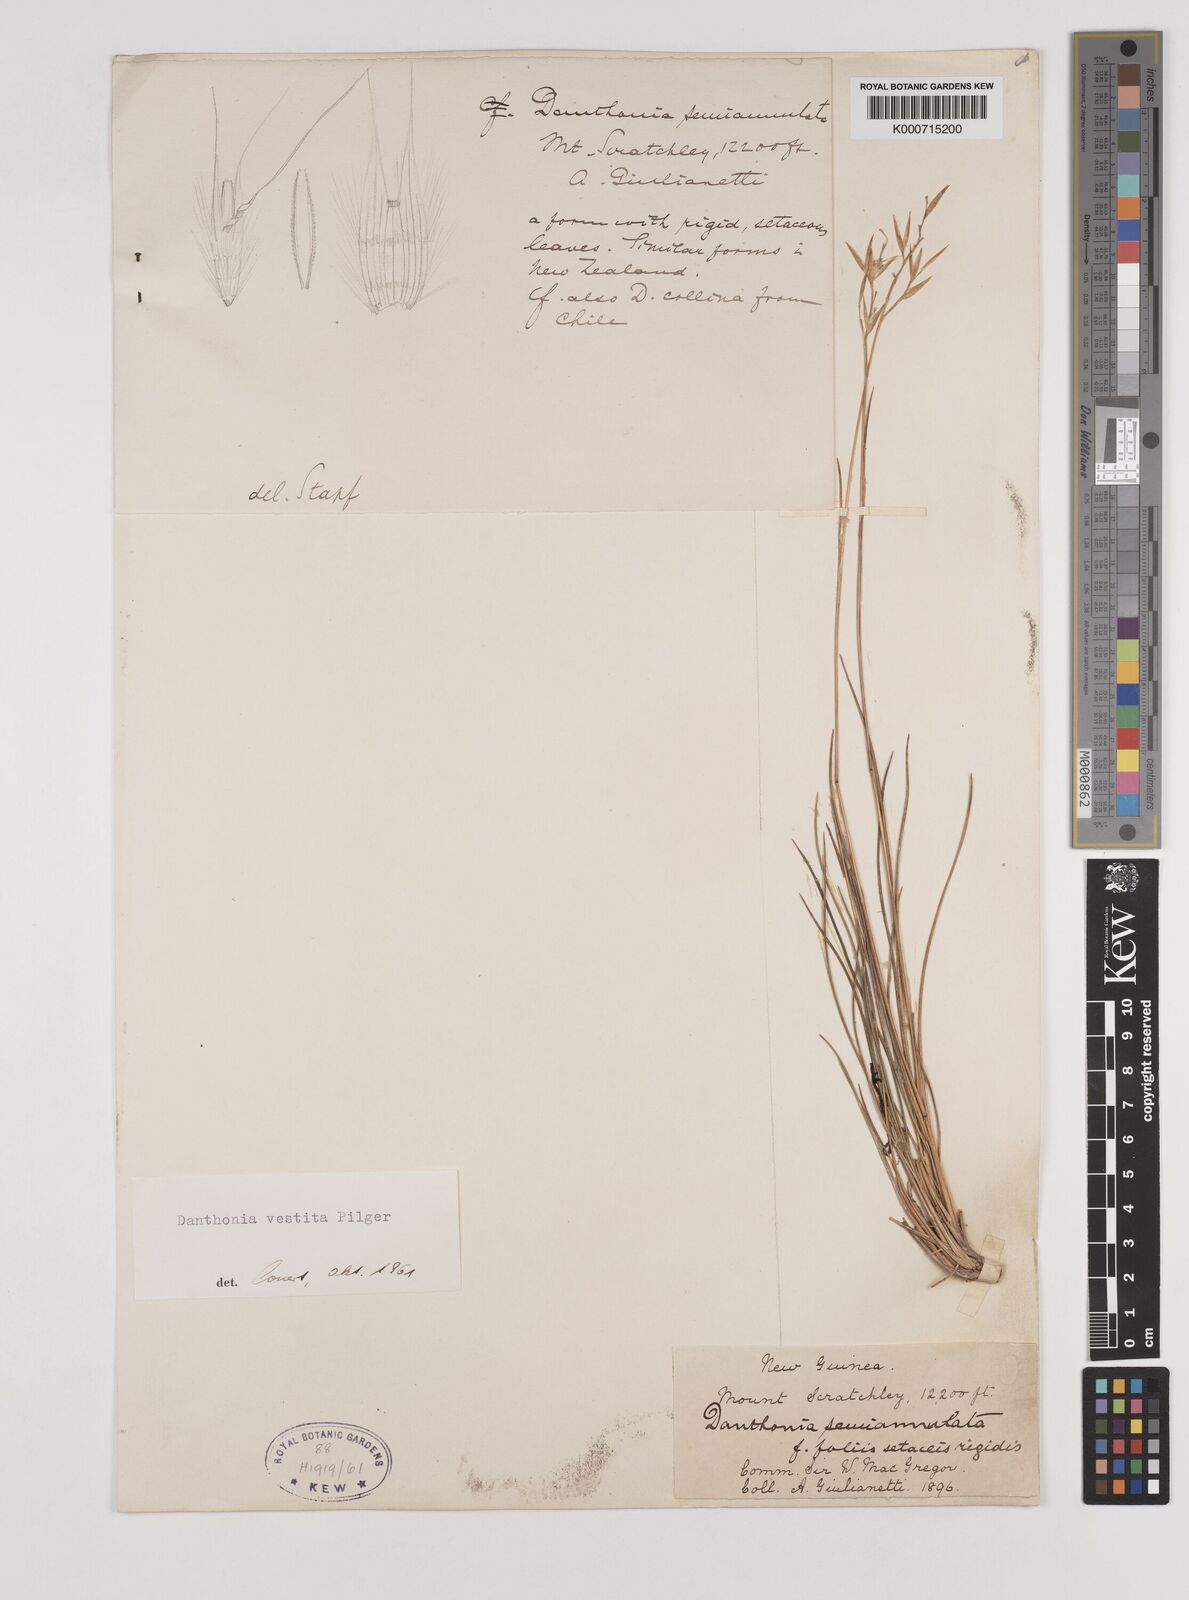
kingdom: Plantae
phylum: Tracheophyta
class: Liliopsida
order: Poales
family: Poaceae
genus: Rytidosperma
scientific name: Rytidosperma vestitum
